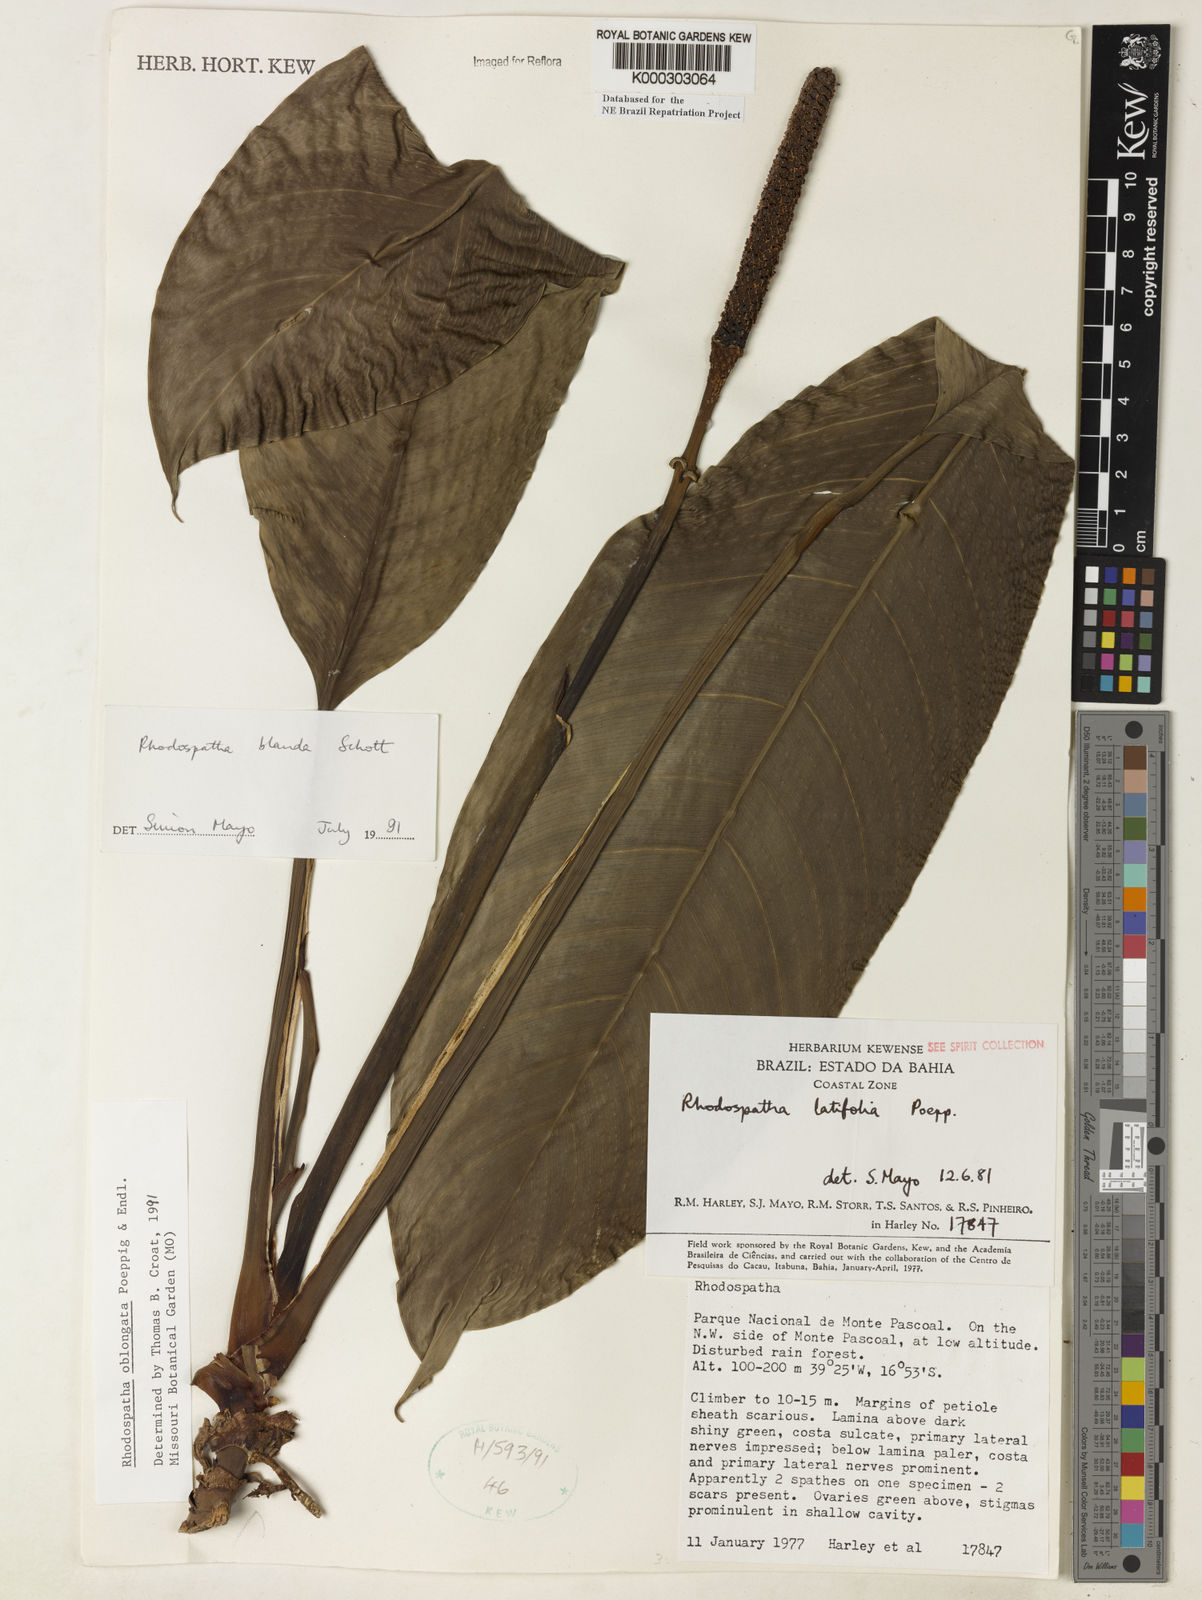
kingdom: Plantae
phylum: Tracheophyta
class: Liliopsida
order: Alismatales
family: Araceae
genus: Rhodospatha
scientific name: Rhodospatha oblongata
